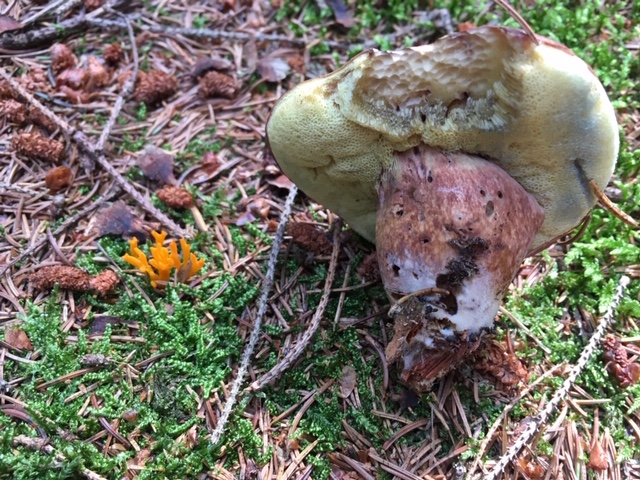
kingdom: Fungi
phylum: Basidiomycota
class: Agaricomycetes
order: Boletales
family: Boletaceae
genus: Imleria
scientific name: Imleria badia
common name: brunstokket rørhat
